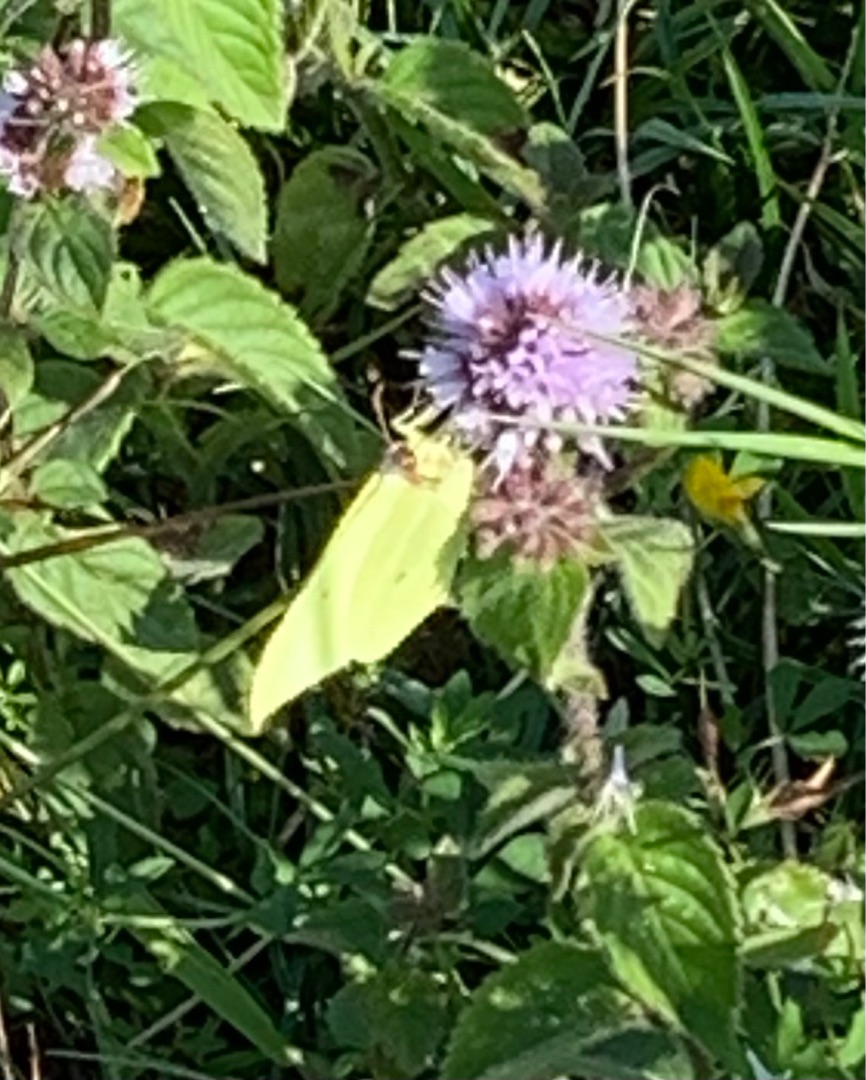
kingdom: Animalia
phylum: Arthropoda
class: Insecta
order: Lepidoptera
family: Pieridae
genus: Gonepteryx
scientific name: Gonepteryx rhamni
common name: Citronsommerfugl
